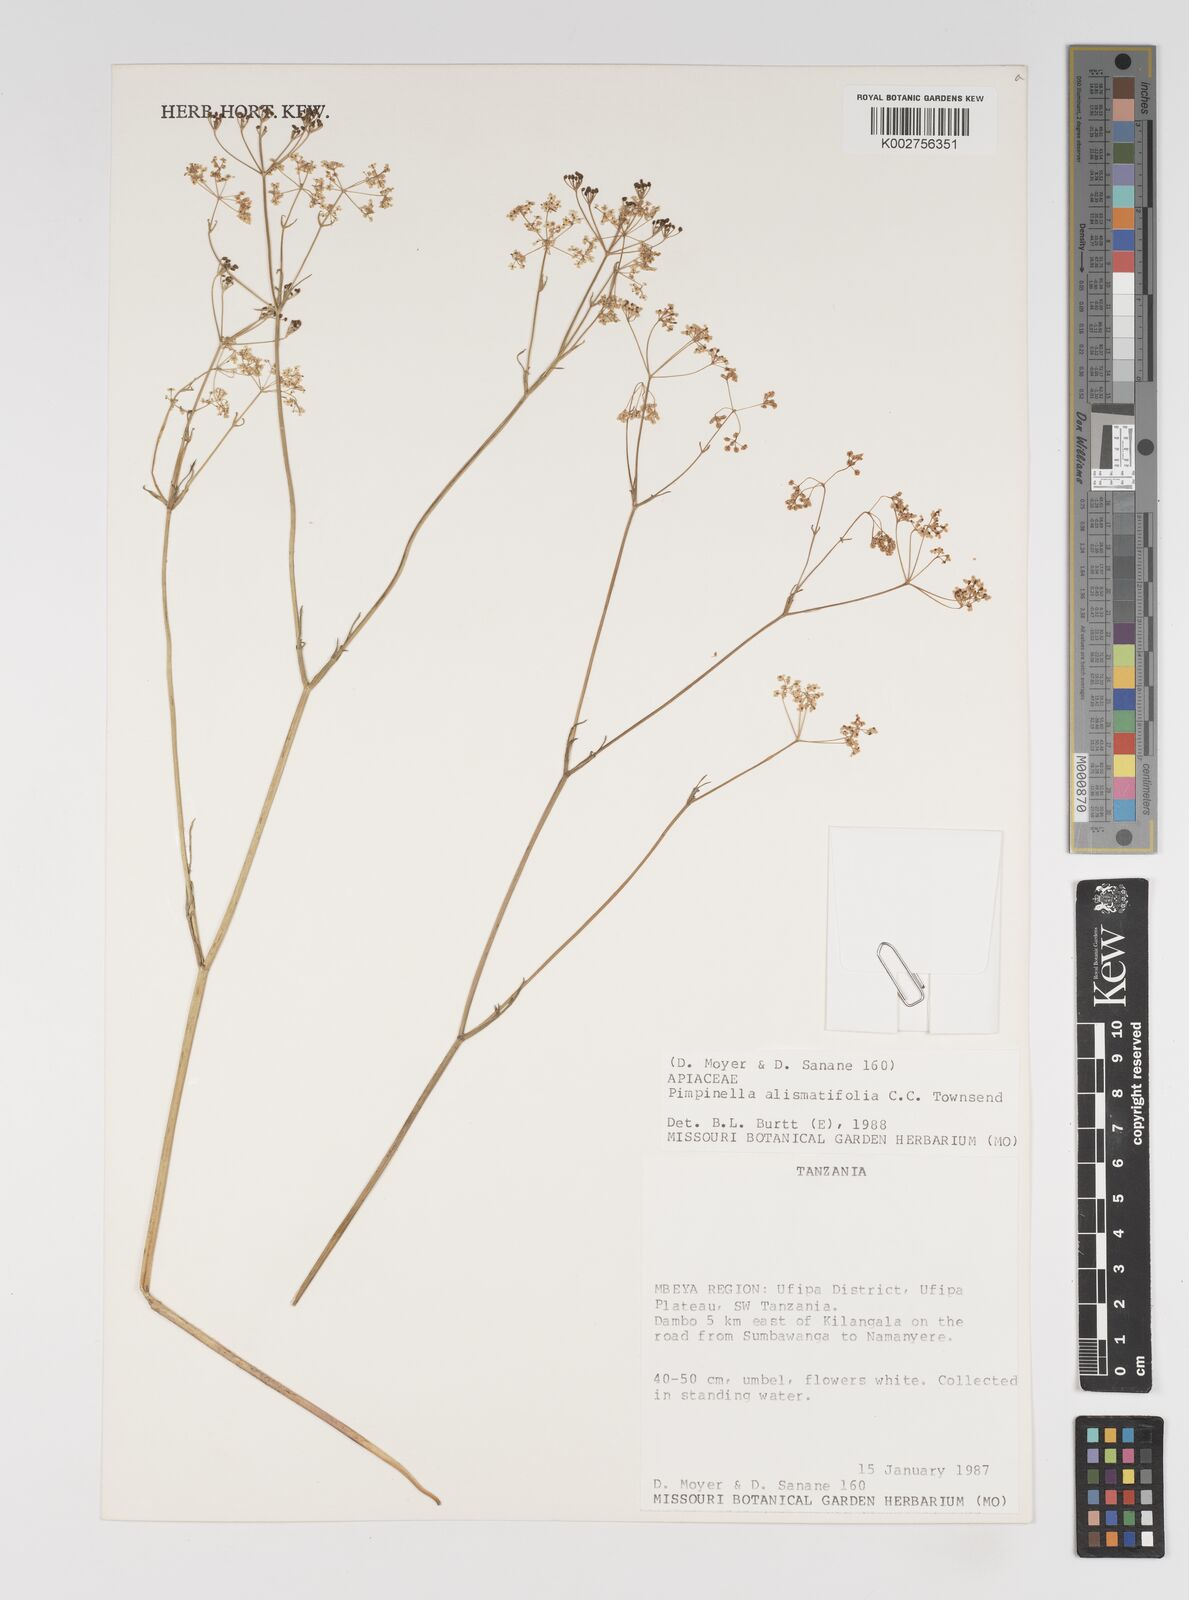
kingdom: Plantae
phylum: Tracheophyta
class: Magnoliopsida
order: Apiales
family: Apiaceae
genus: Pimpinella
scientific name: Pimpinella alismatifolia
